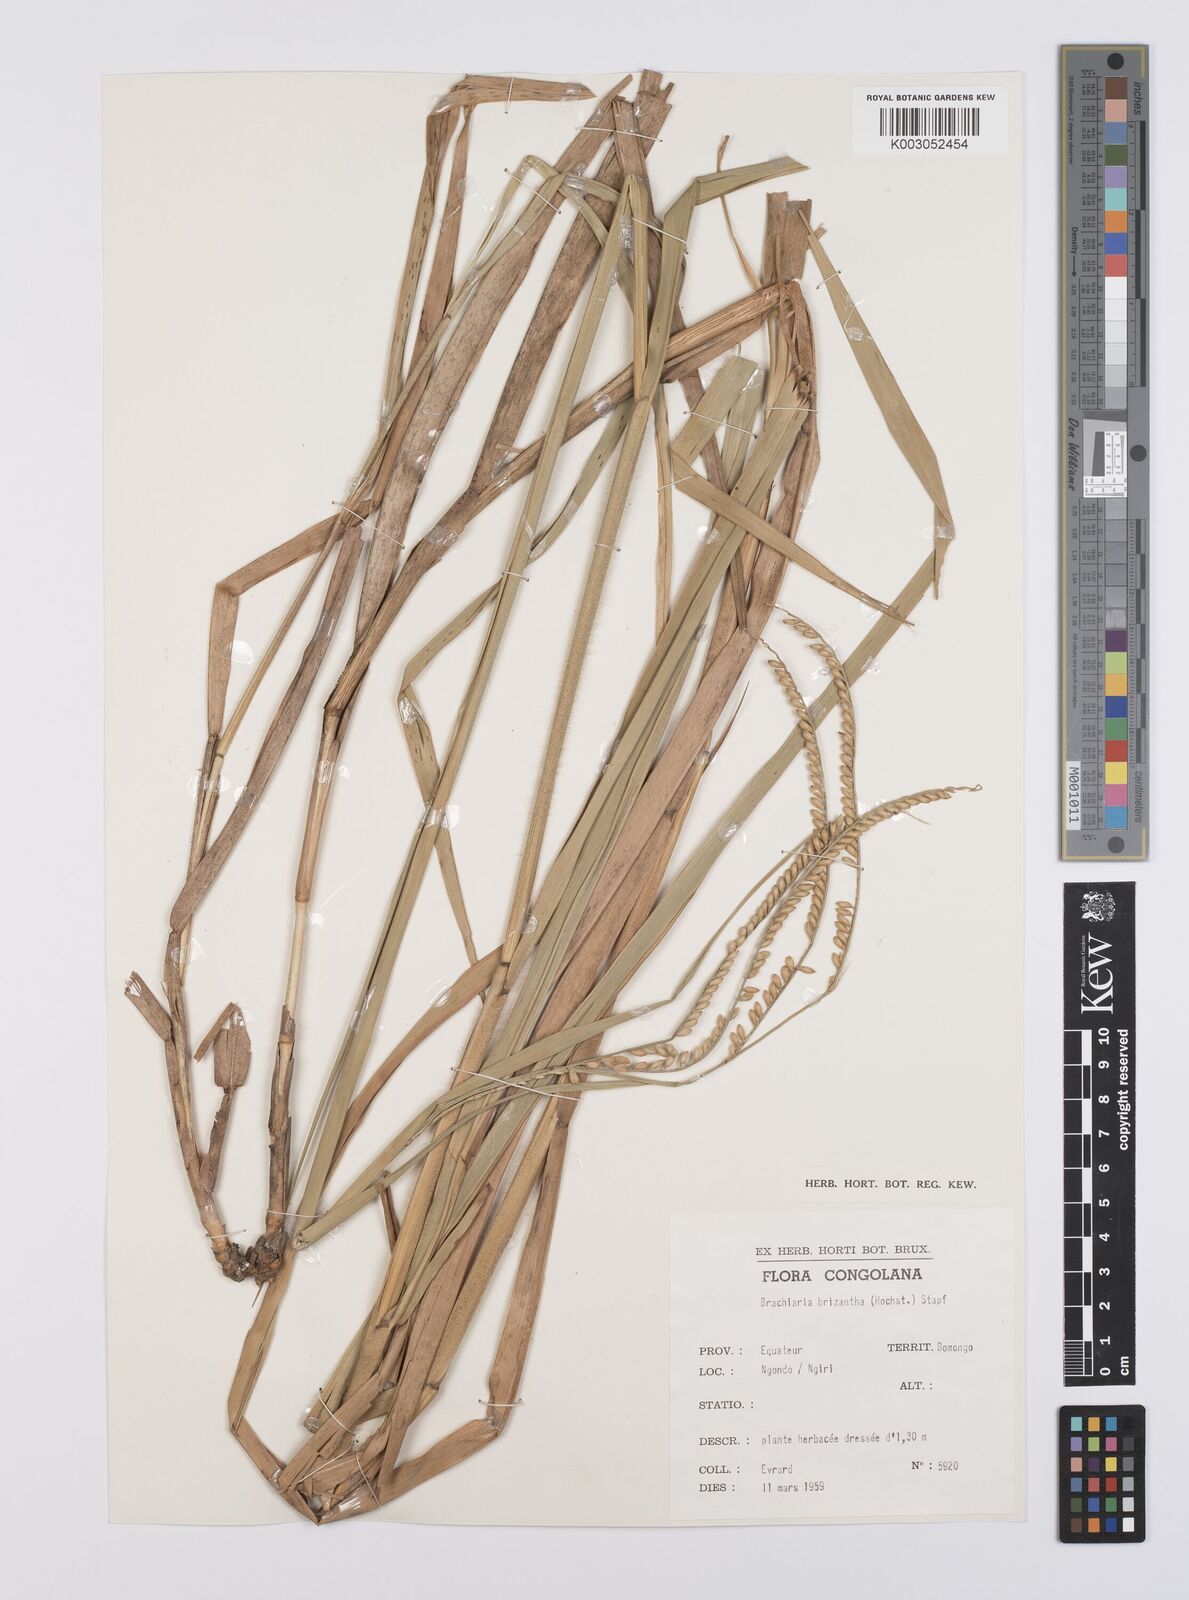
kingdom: Plantae
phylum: Tracheophyta
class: Liliopsida
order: Poales
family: Poaceae
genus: Urochloa
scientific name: Urochloa brizantha
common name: Palisade signalgrass
